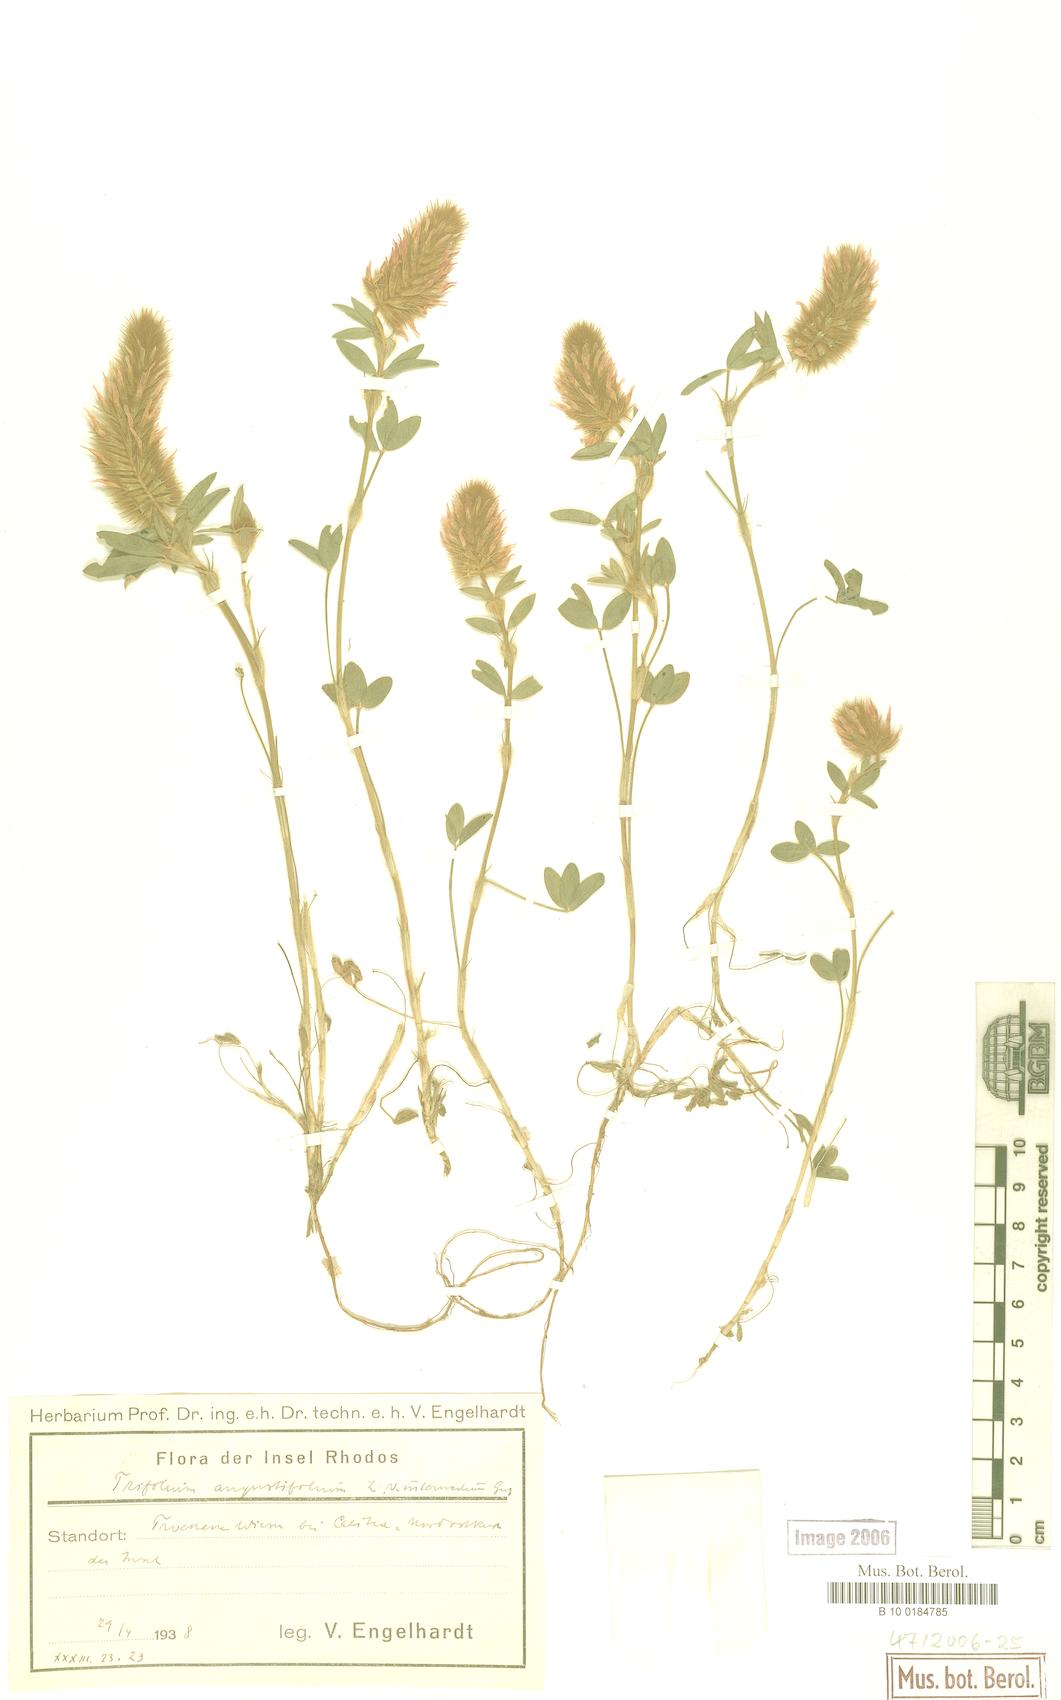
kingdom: Plantae
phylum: Tracheophyta
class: Magnoliopsida
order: Fabales
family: Fabaceae
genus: Trifolium
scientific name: Trifolium angustifolium
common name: Narrow clover
